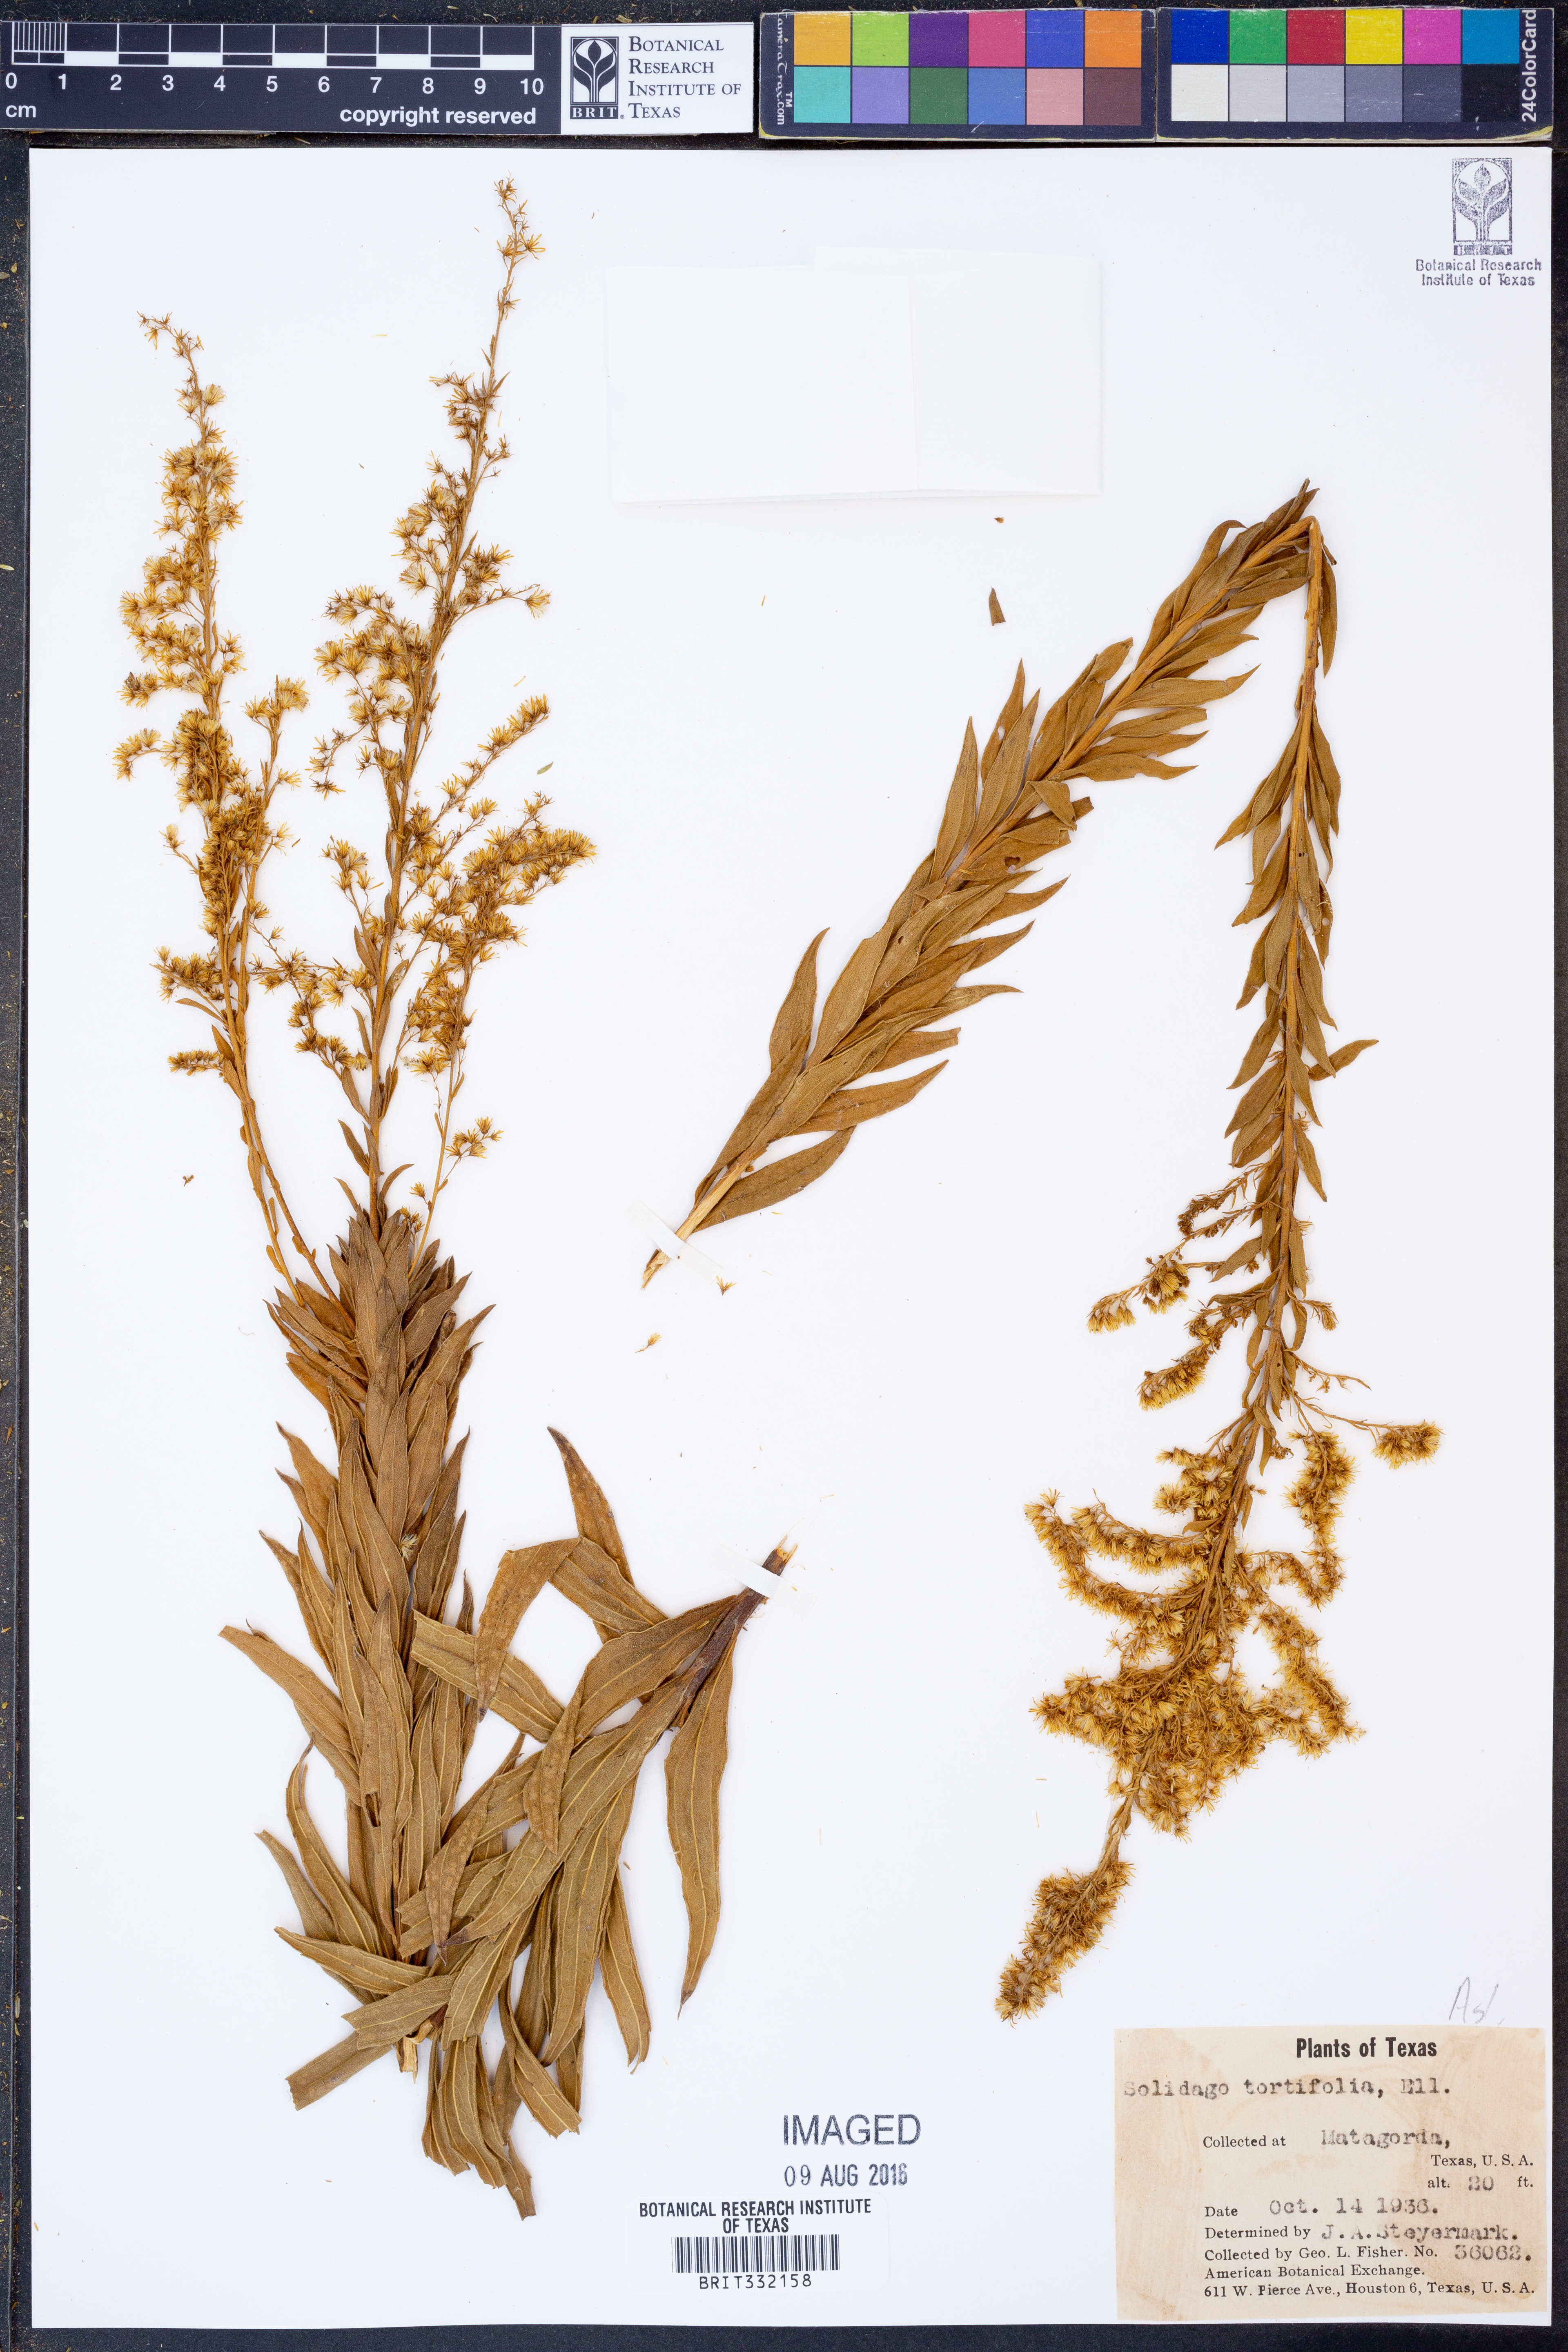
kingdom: Plantae
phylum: Tracheophyta
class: Magnoliopsida
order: Asterales
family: Asteraceae
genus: Solidago
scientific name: Solidago tortifolia
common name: Twisted-leaf goldenrod
